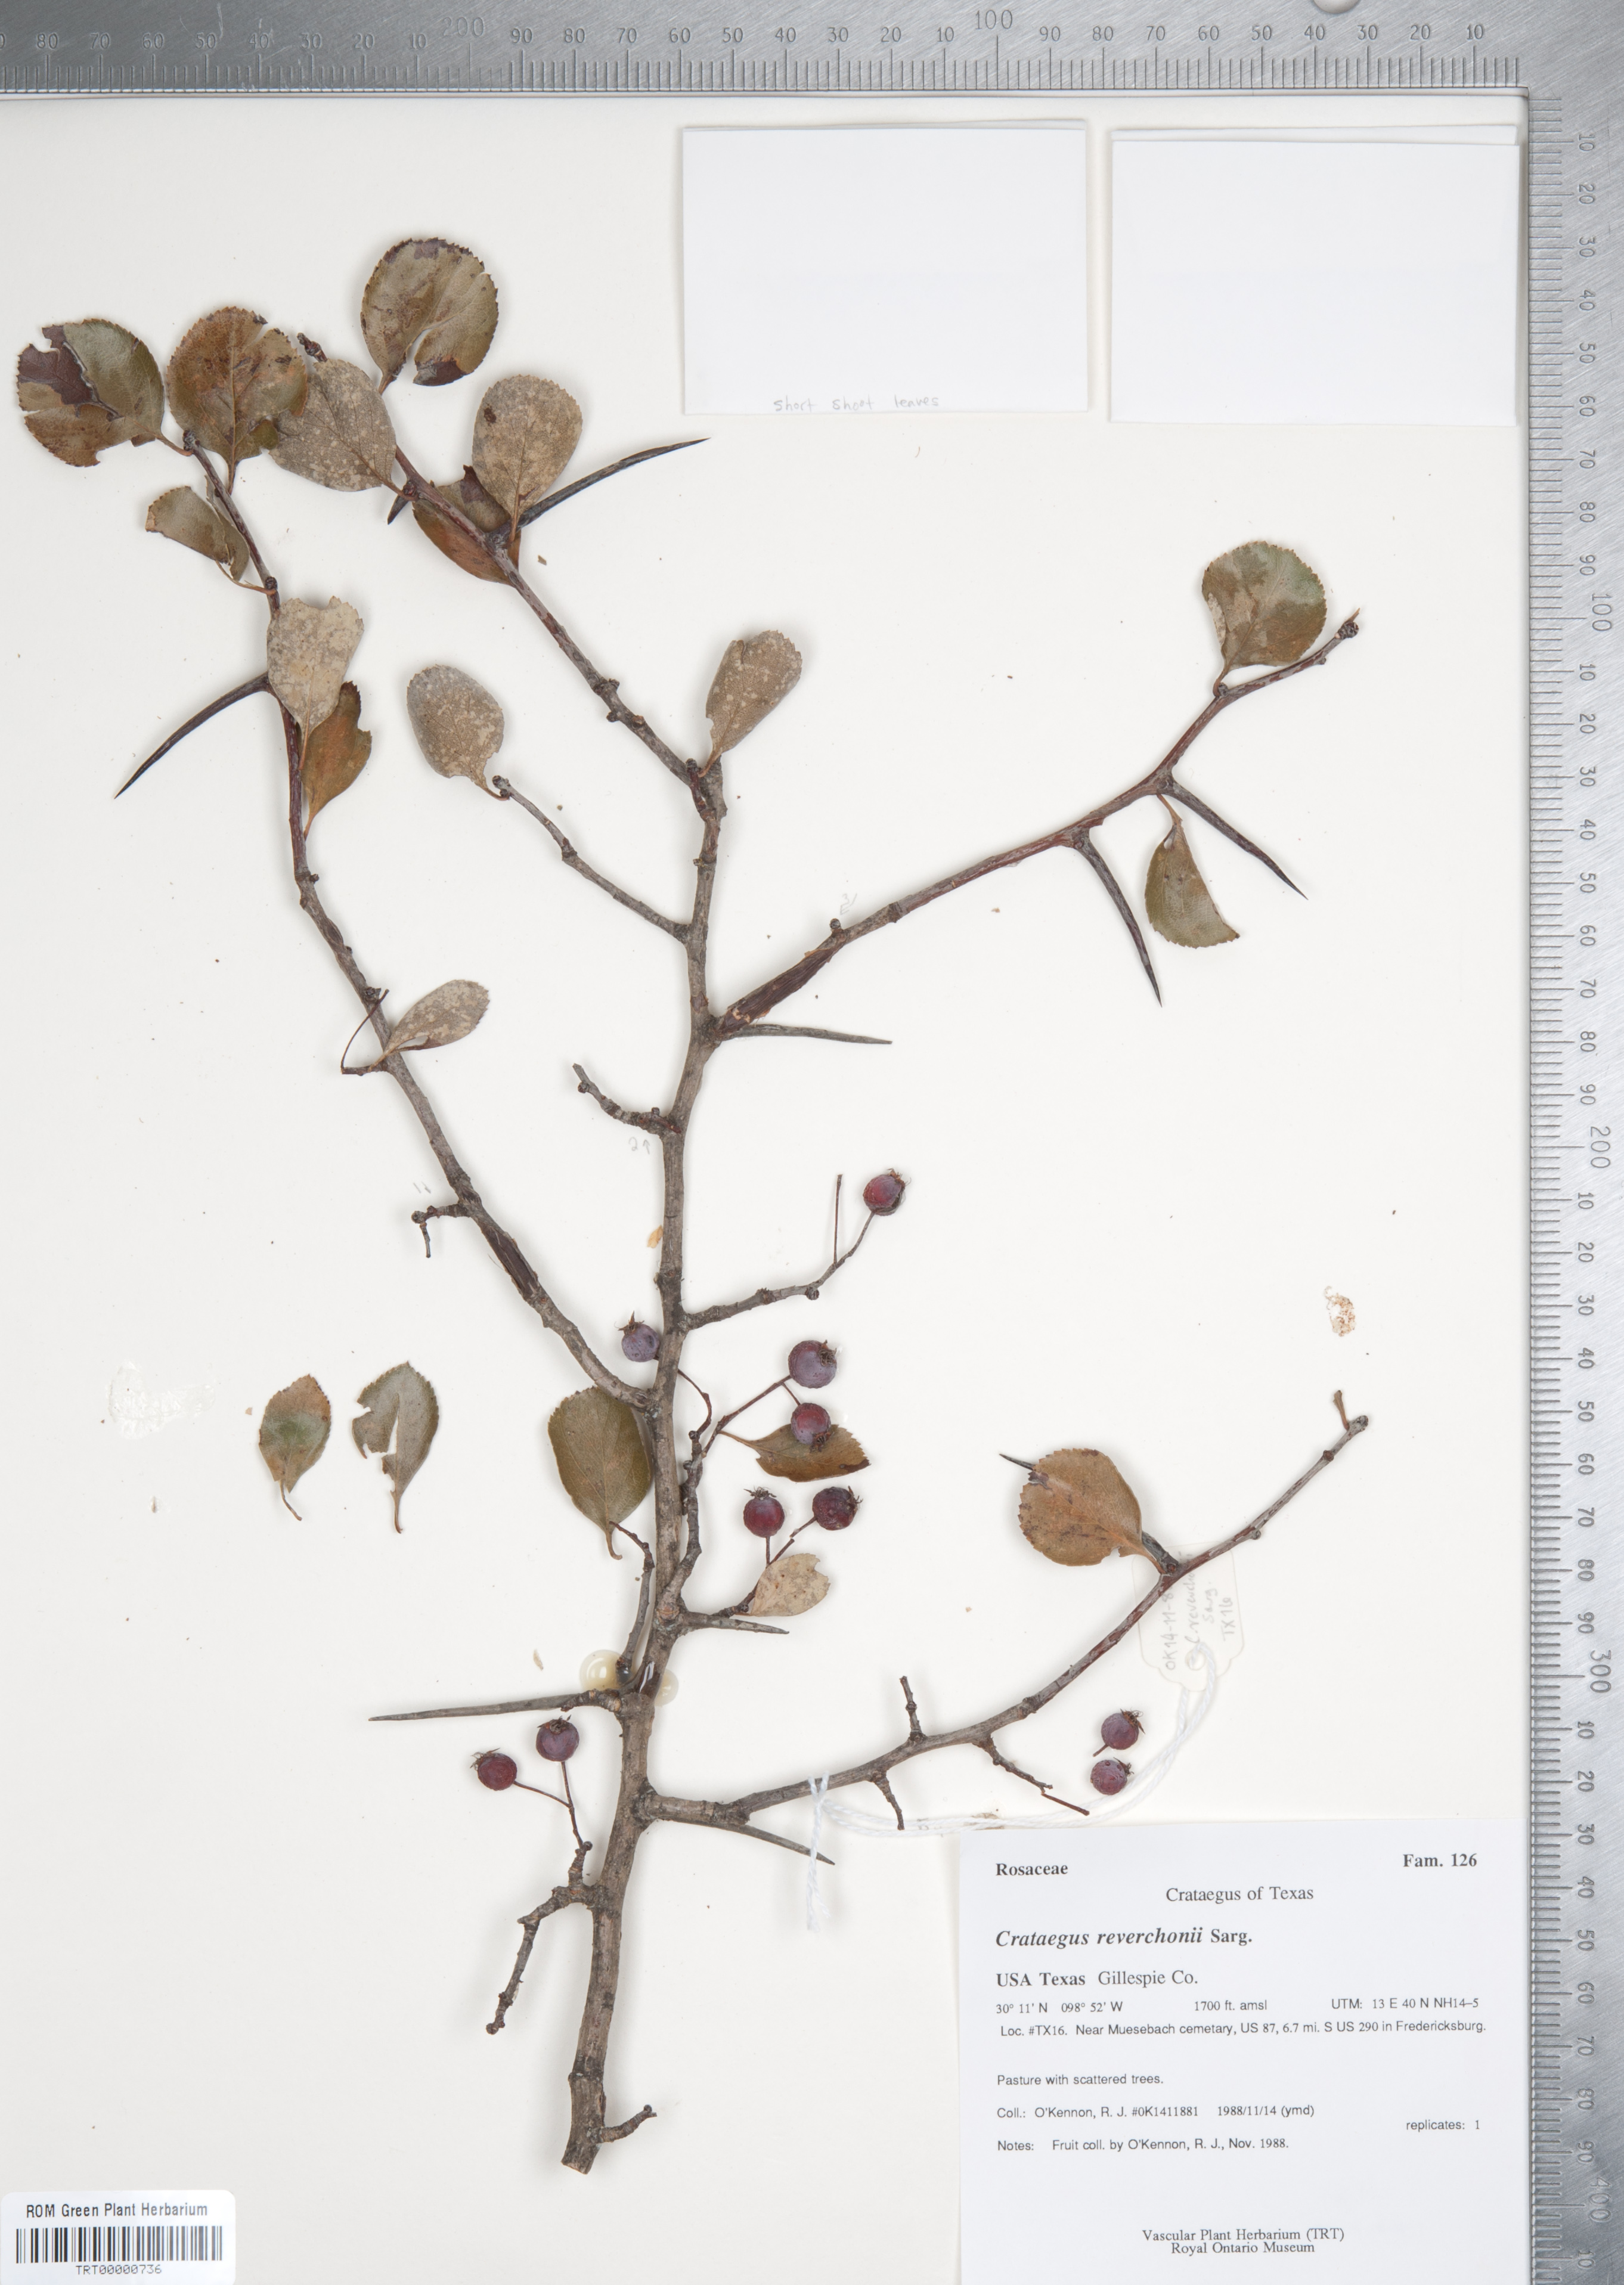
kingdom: Plantae
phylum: Tracheophyta
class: Magnoliopsida
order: Rosales
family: Rosaceae
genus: Crataegus
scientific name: Crataegus reverchonii
